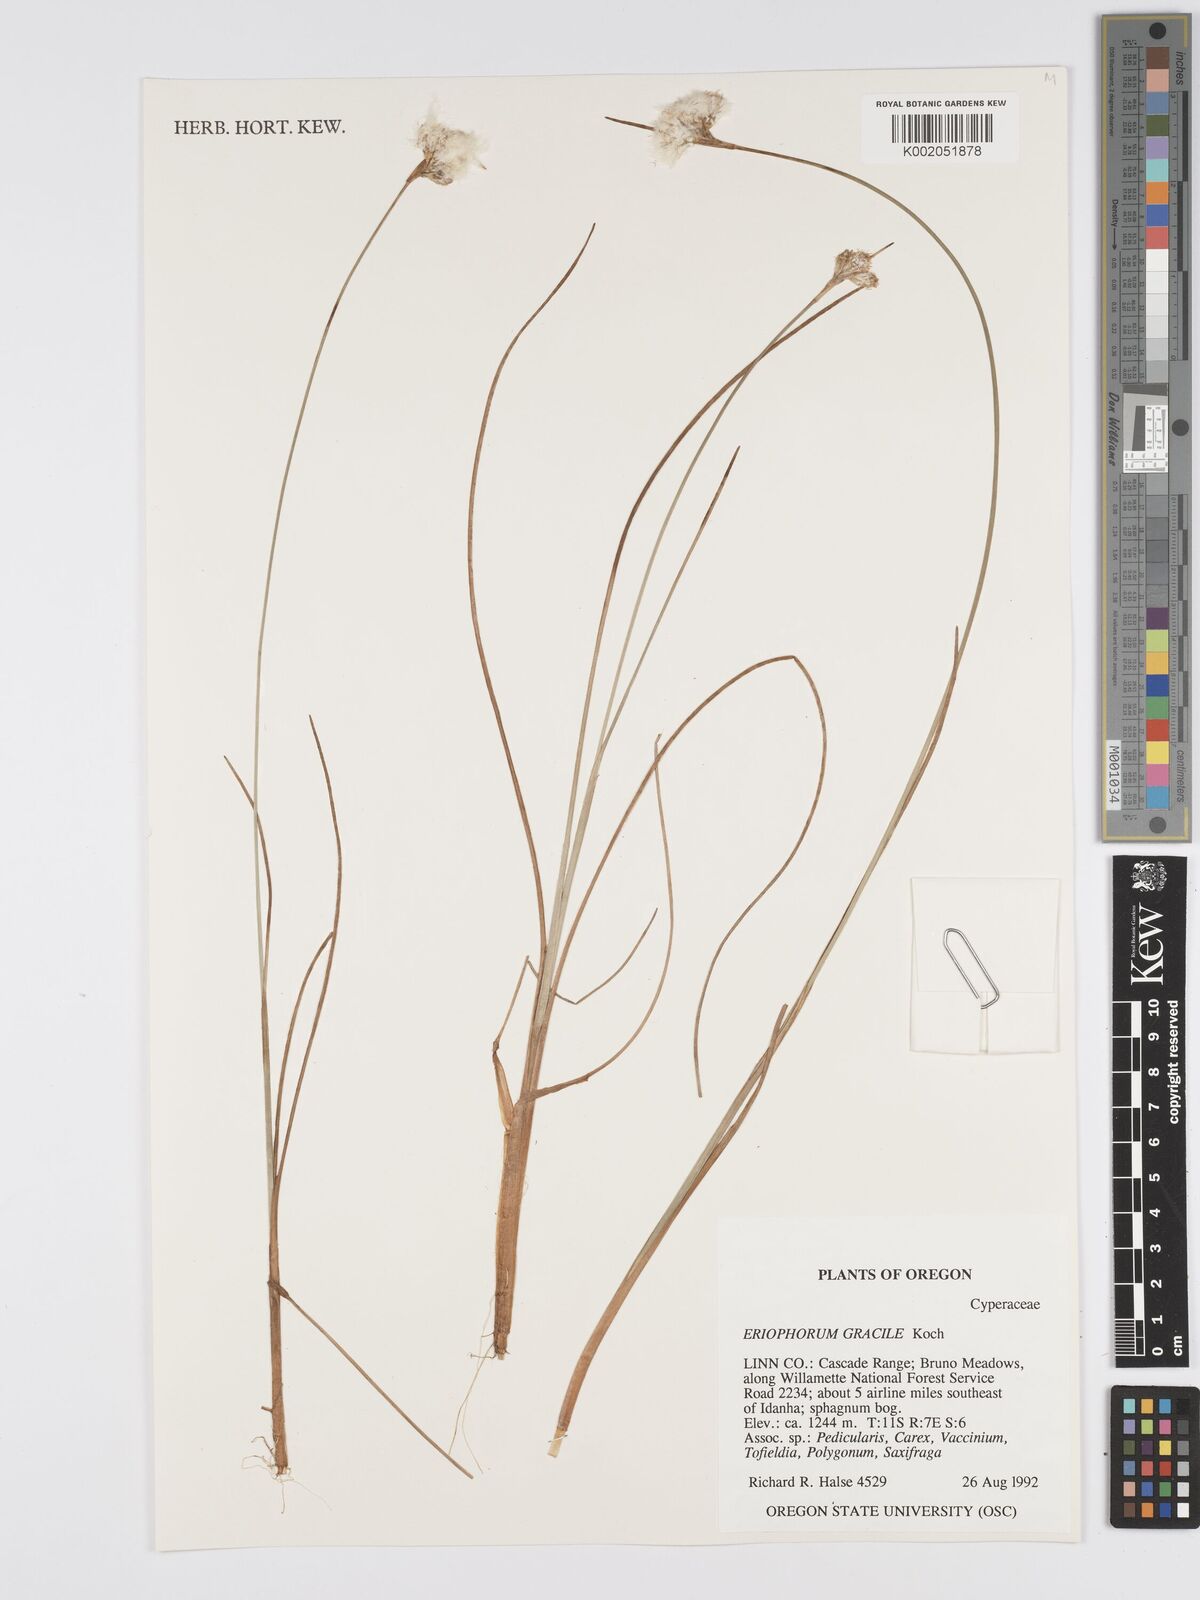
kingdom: Plantae
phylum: Tracheophyta
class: Liliopsida
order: Poales
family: Cyperaceae
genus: Eriophorum
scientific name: Eriophorum gracile
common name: Slender cottongrass
